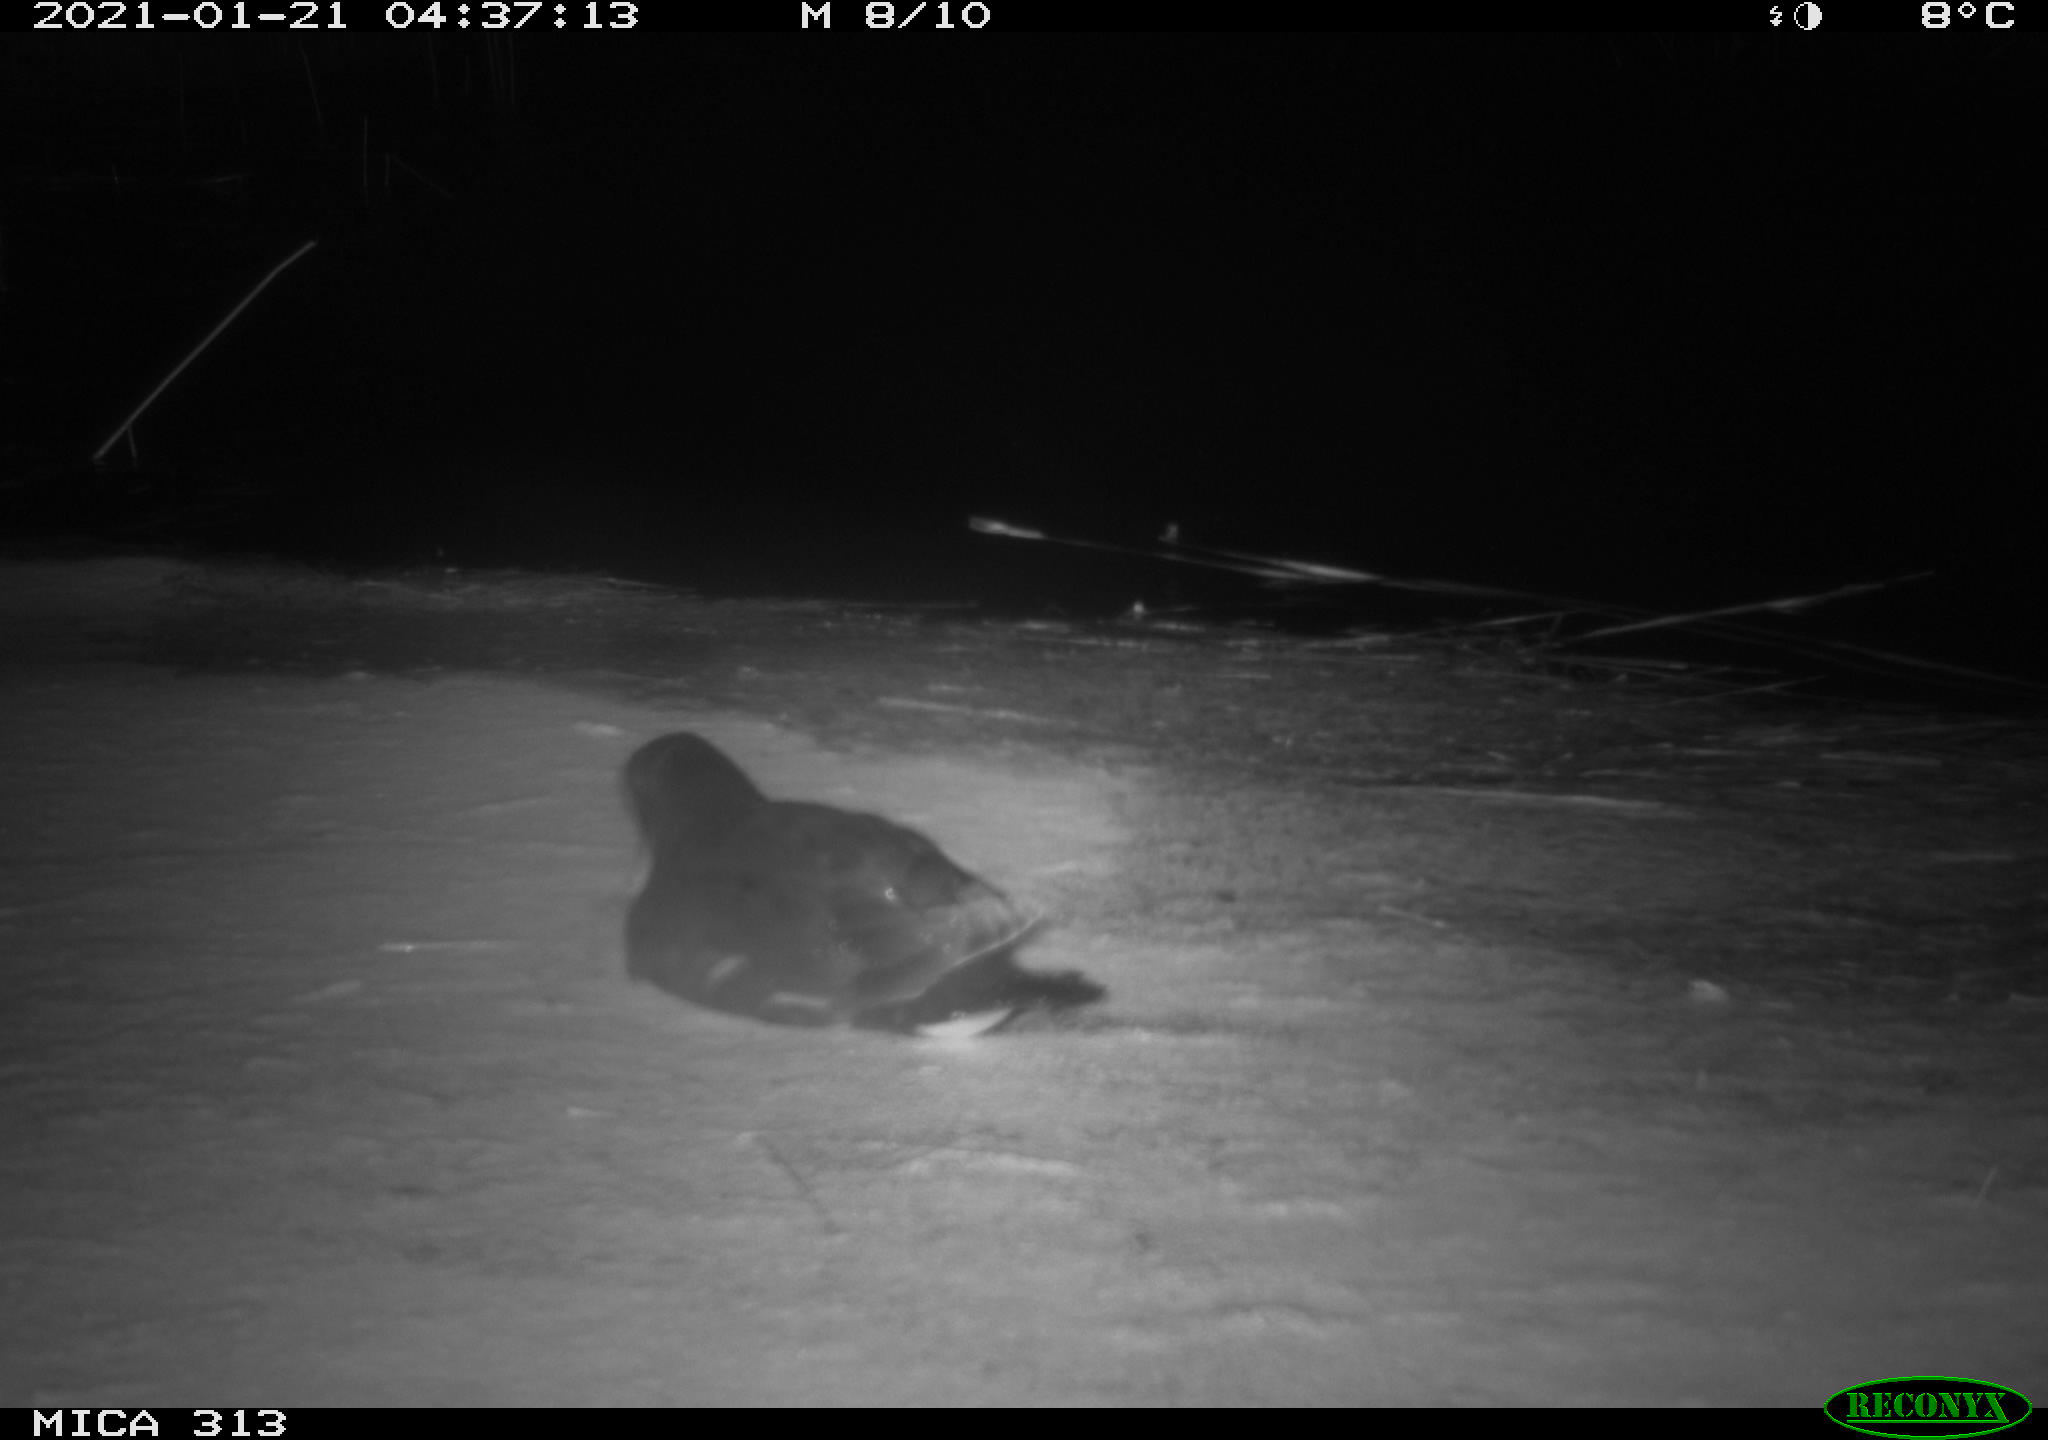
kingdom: Animalia
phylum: Chordata
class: Aves
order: Gruiformes
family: Rallidae
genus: Fulica
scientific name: Fulica atra
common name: Eurasian coot
